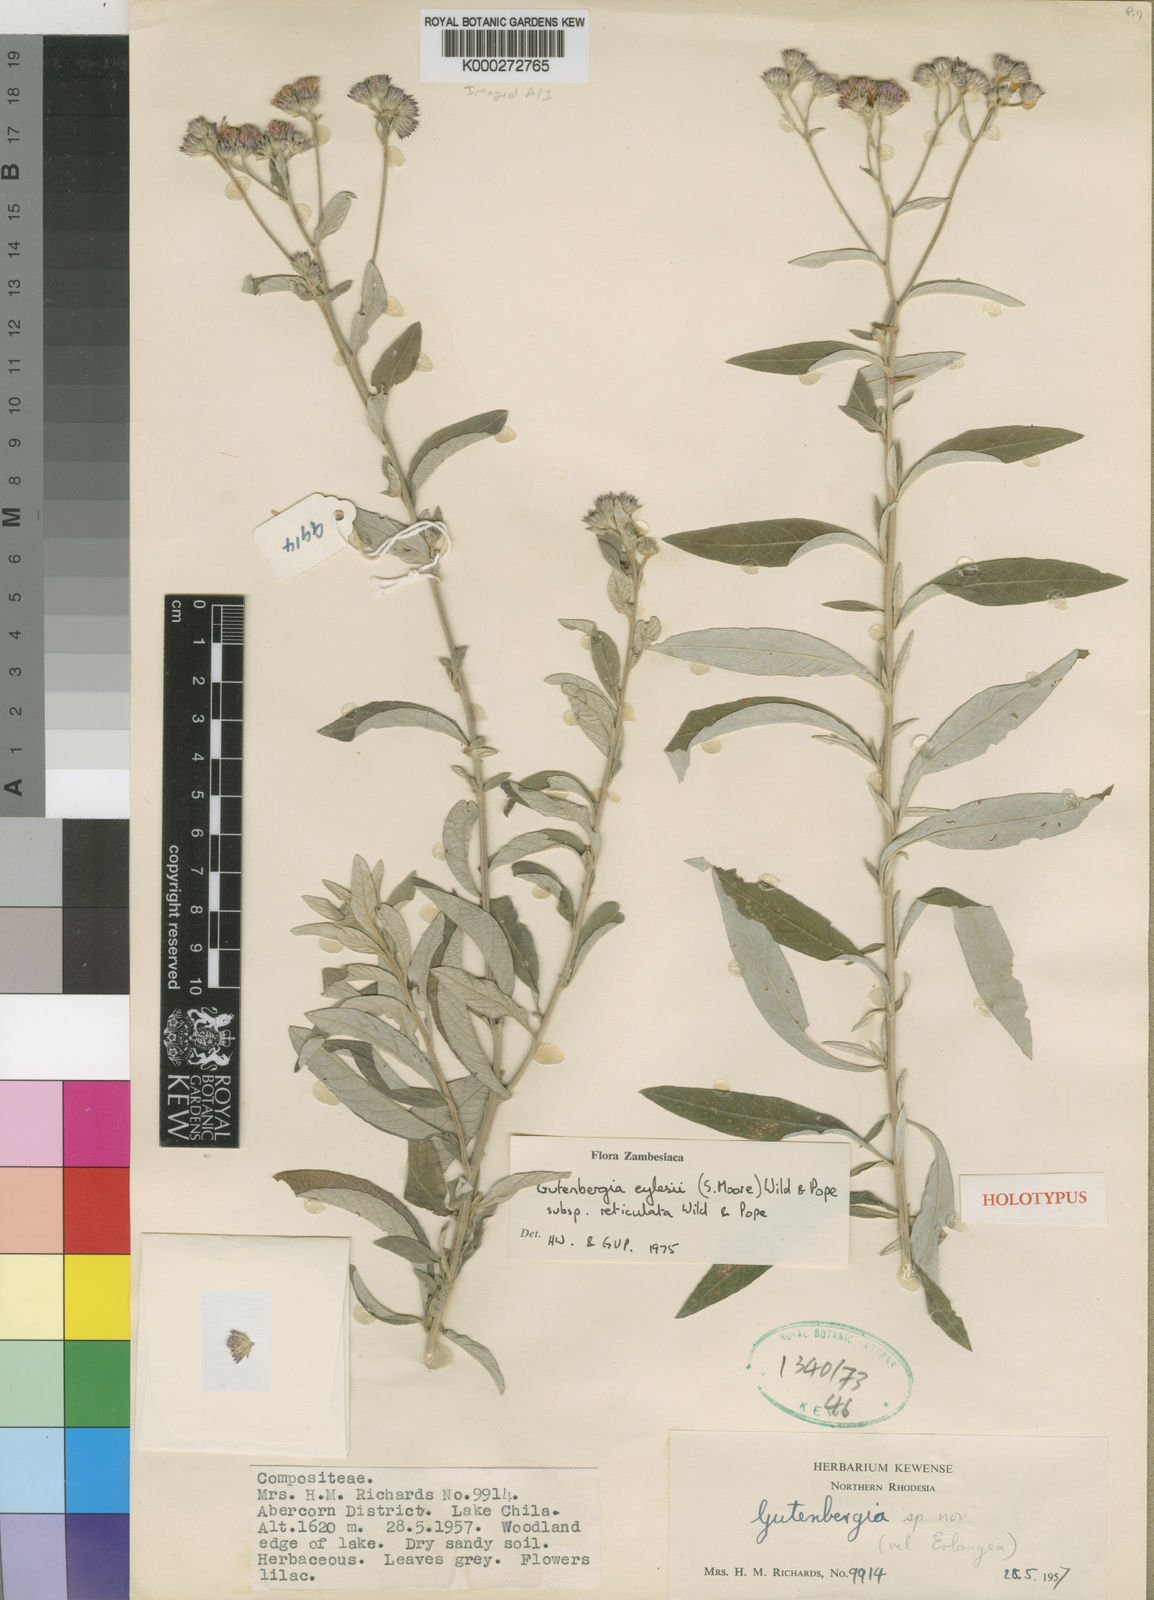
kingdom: Plantae
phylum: Tracheophyta
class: Magnoliopsida
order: Asterales
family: Asteraceae
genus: Gutenbergia
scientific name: Gutenbergia eylesii
